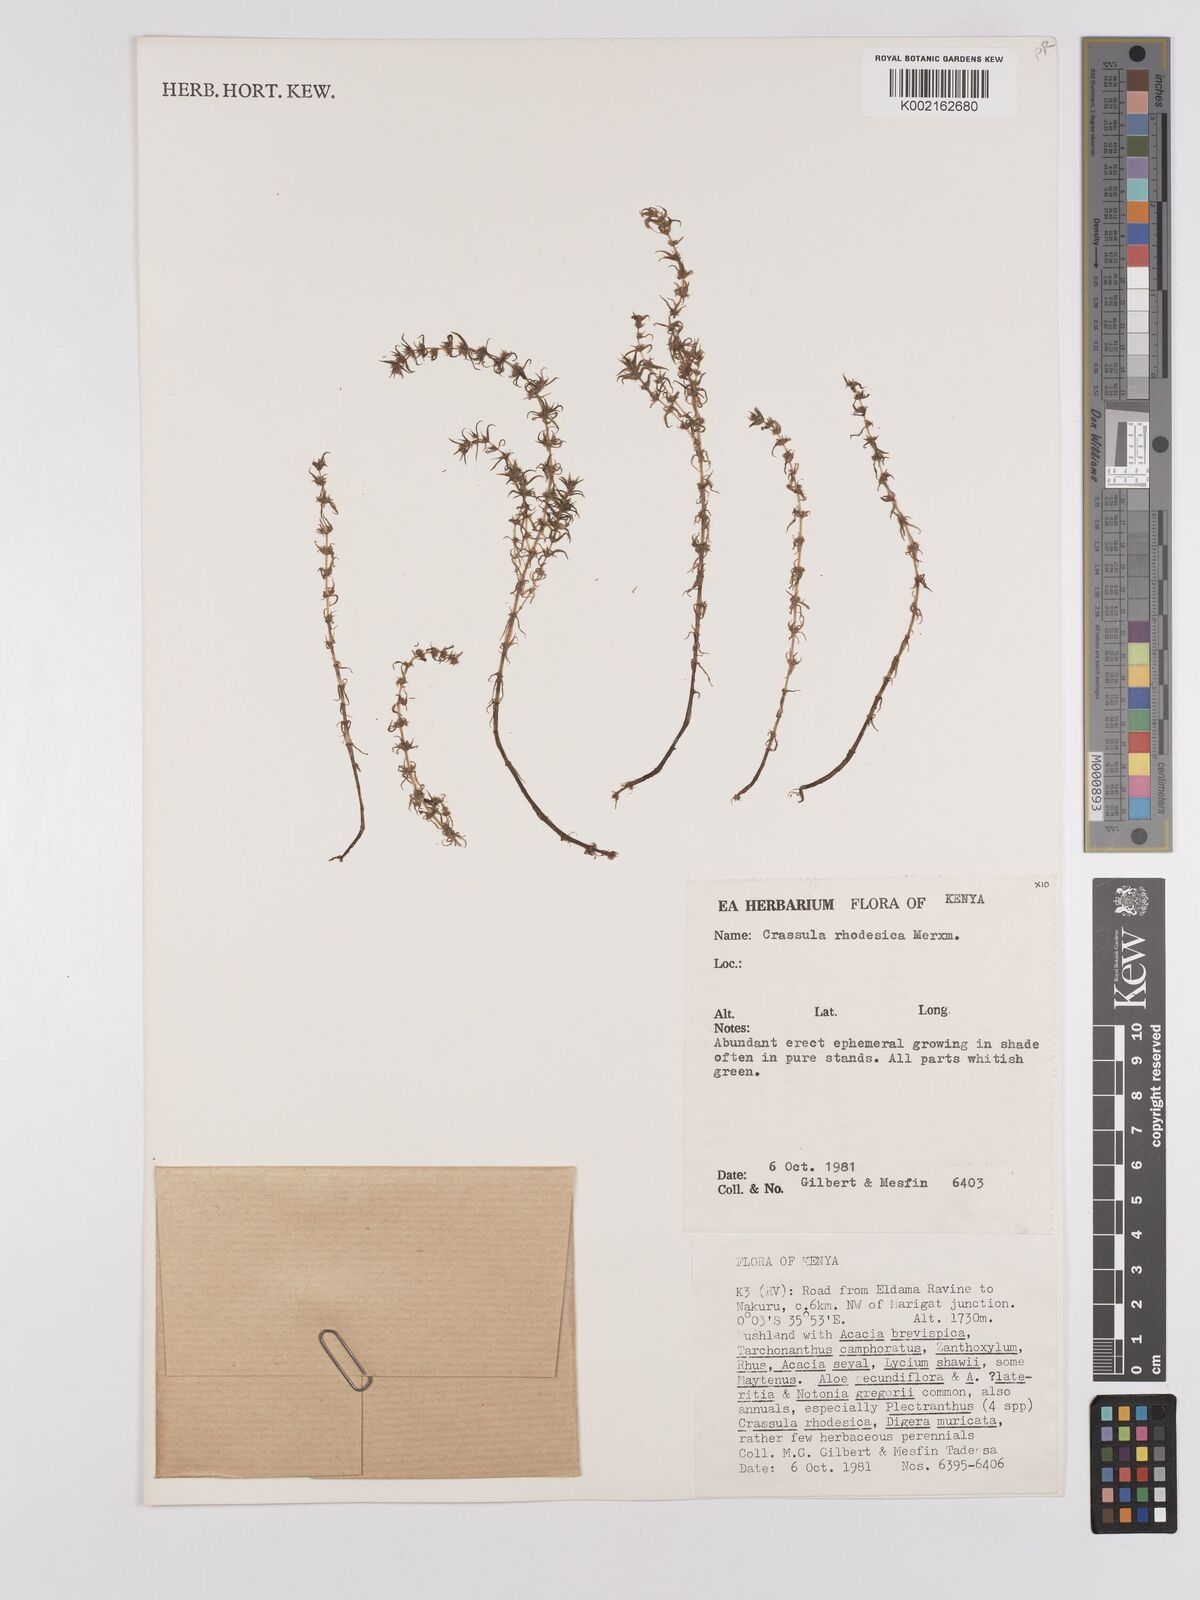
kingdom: Plantae
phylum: Tracheophyta
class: Magnoliopsida
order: Saxifragales
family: Crassulaceae
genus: Crassula
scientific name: Crassula rhodesica
